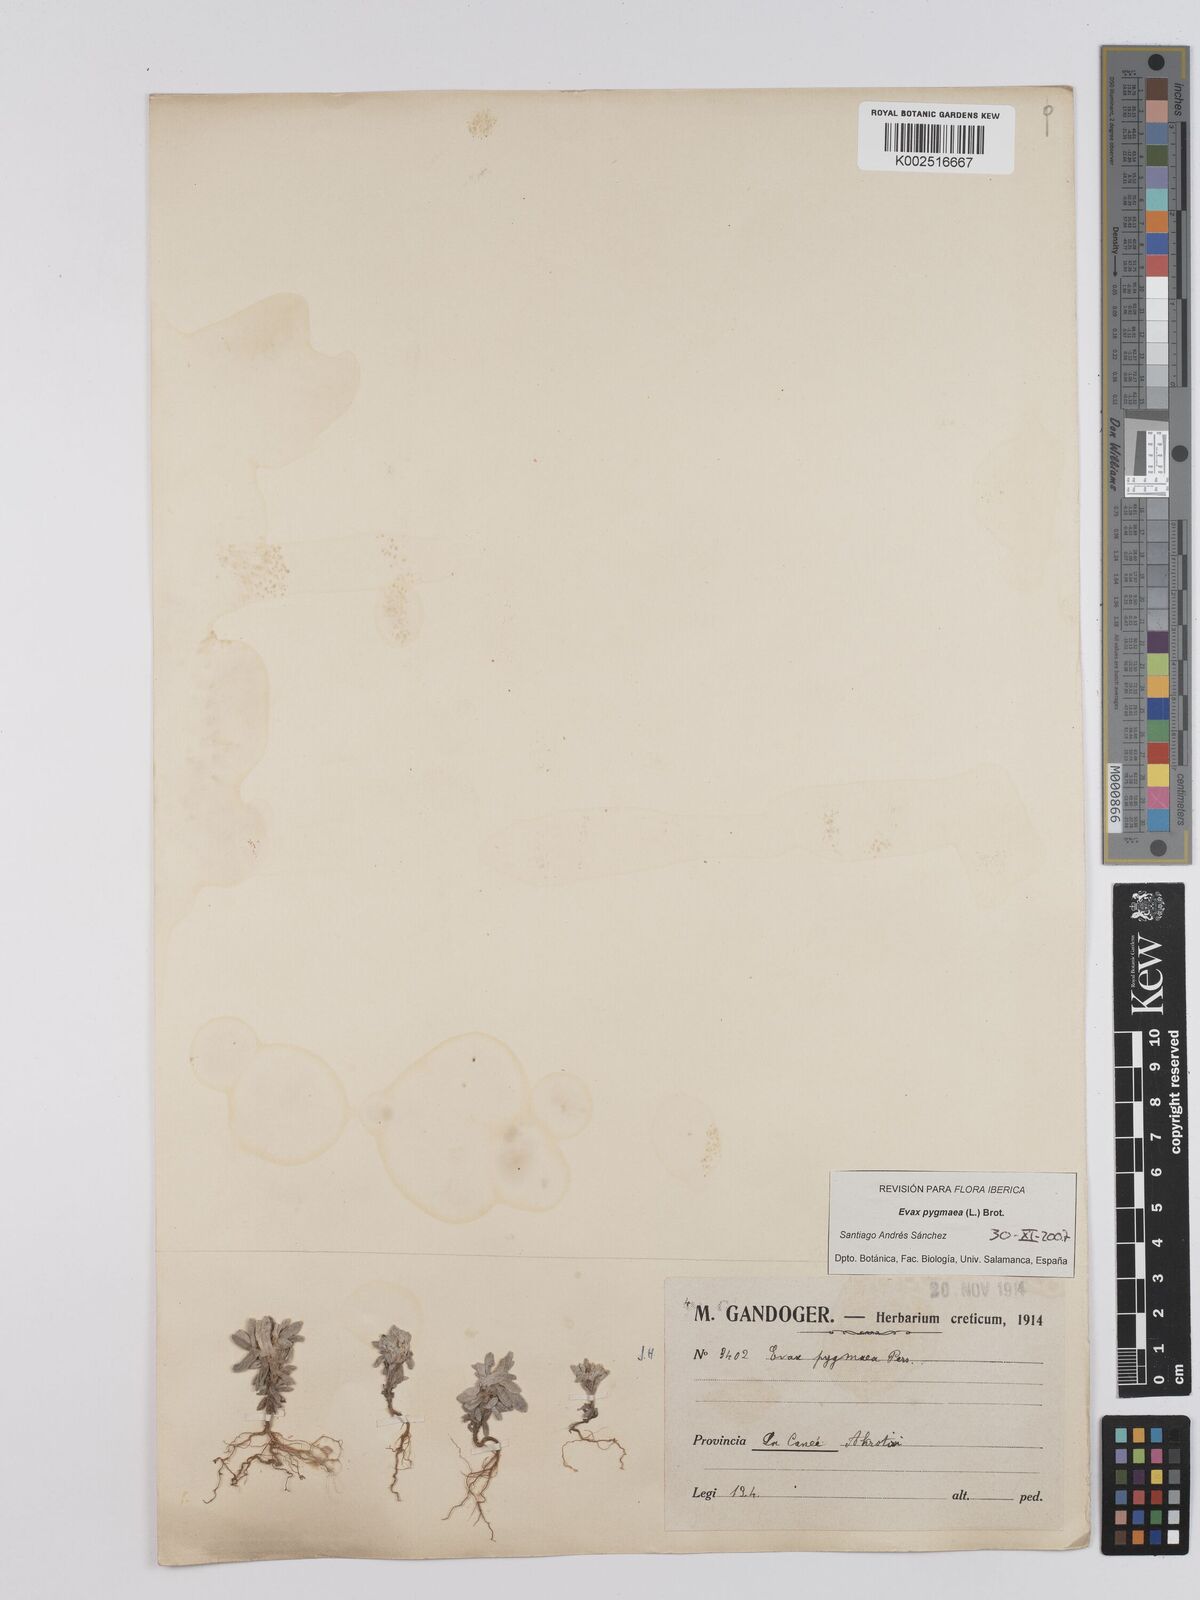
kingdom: Plantae
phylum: Tracheophyta
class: Magnoliopsida
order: Asterales
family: Asteraceae
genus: Filago
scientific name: Filago pygmaea
